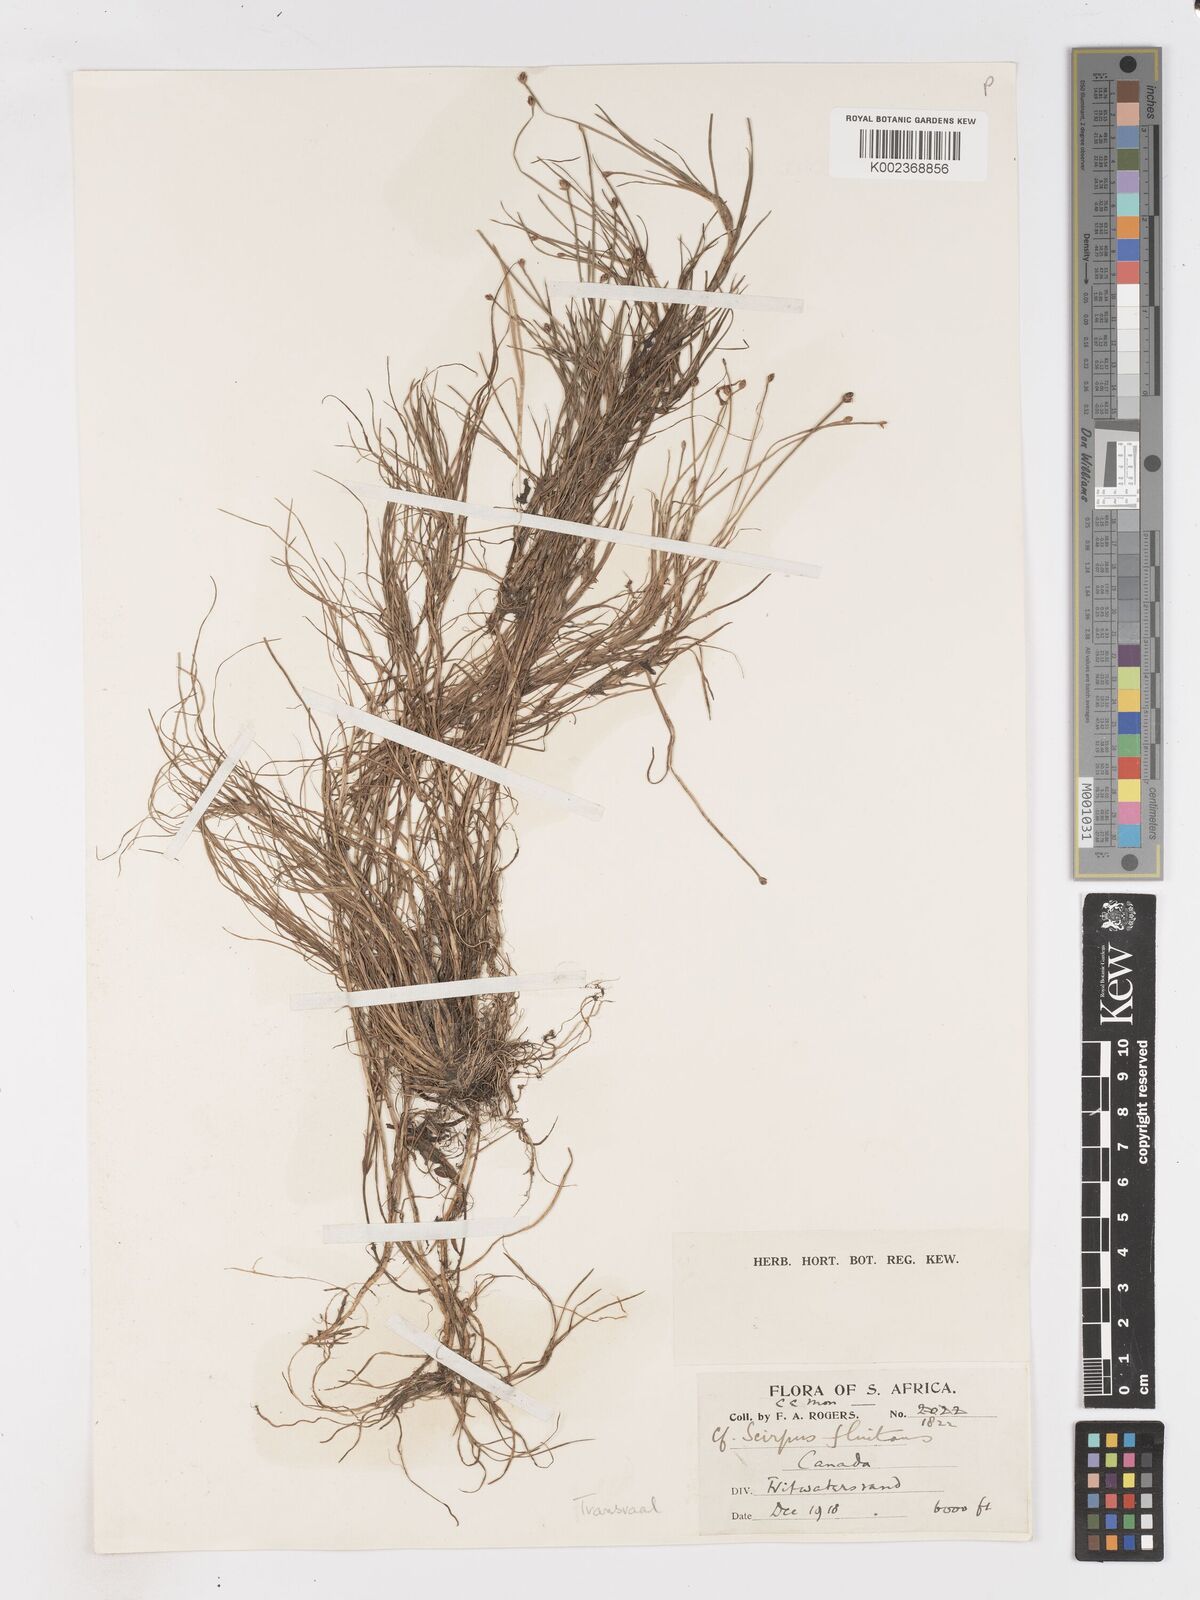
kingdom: Plantae
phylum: Tracheophyta
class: Liliopsida
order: Poales
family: Cyperaceae
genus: Isolepis
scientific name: Isolepis fluitans
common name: Floating club-rush
